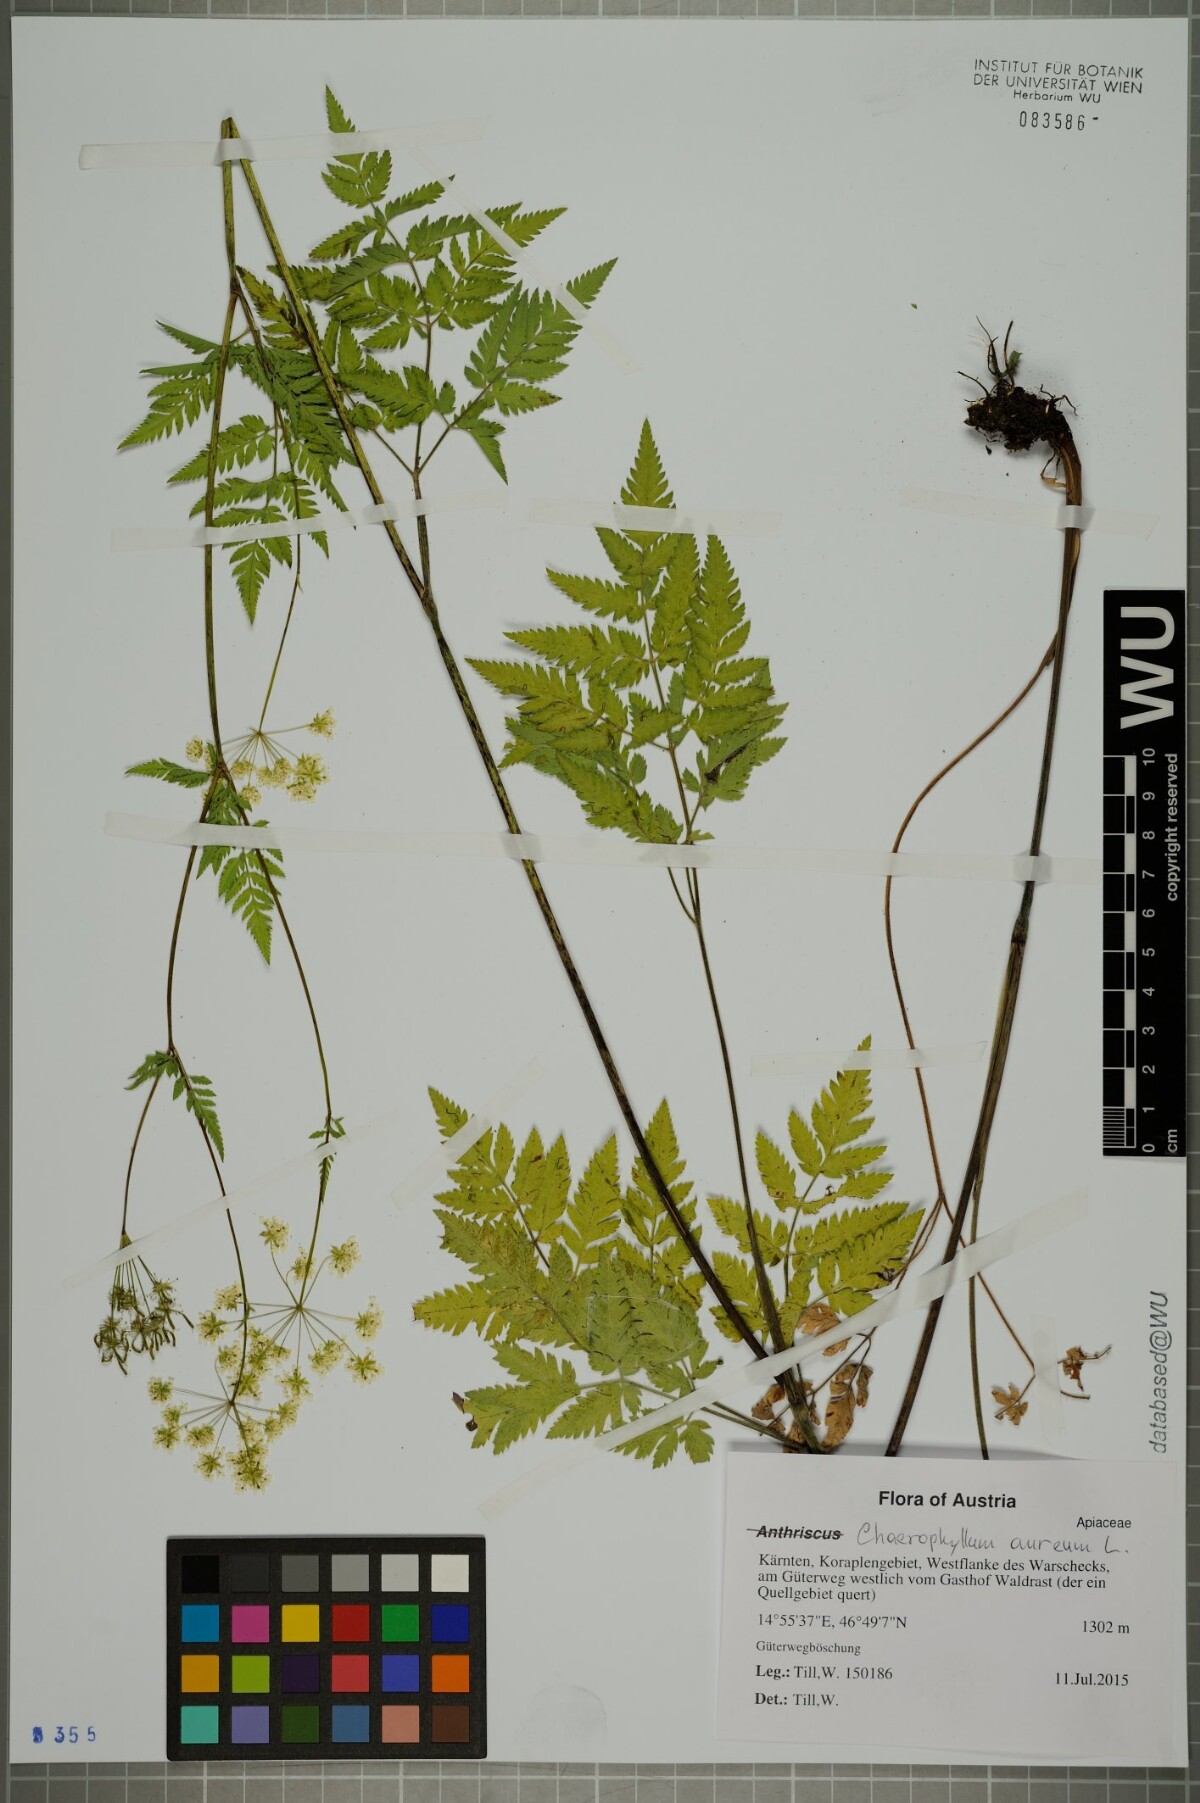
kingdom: Plantae
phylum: Tracheophyta
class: Magnoliopsida
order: Apiales
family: Apiaceae
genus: Chaerophyllum
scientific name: Chaerophyllum aureum
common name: Golden chervil
